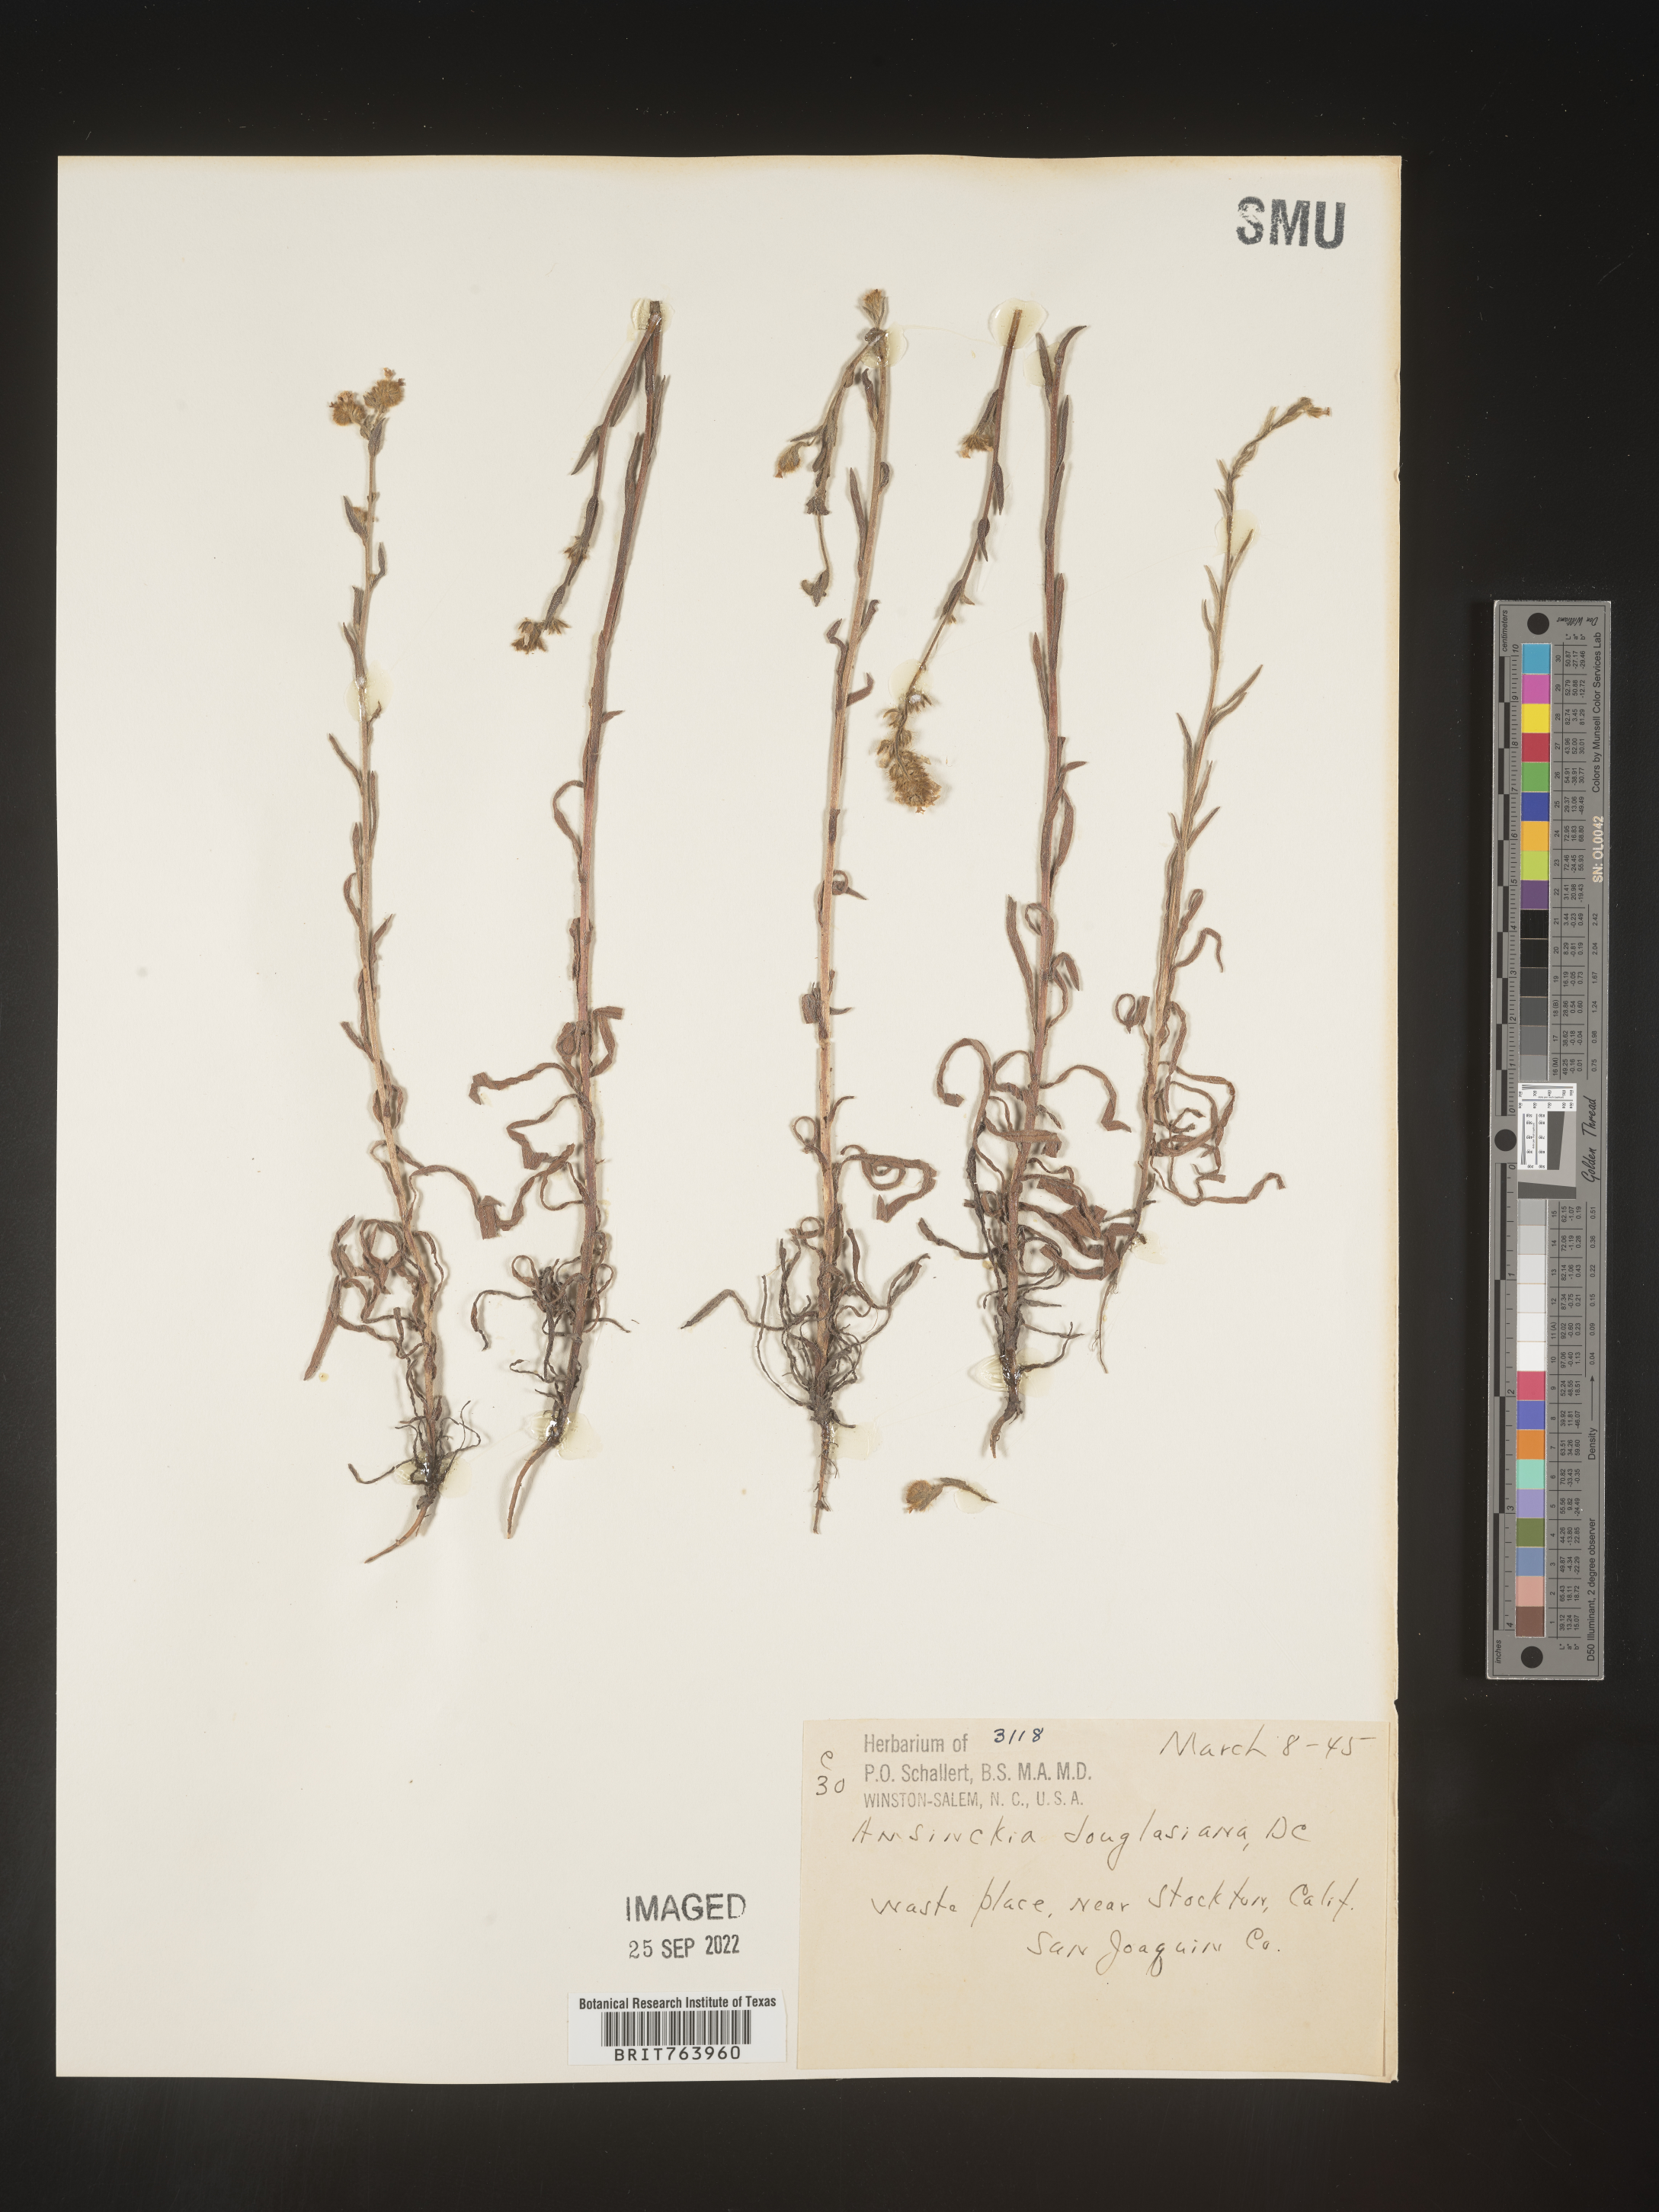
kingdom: Plantae
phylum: Tracheophyta
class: Magnoliopsida
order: Boraginales
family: Boraginaceae
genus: Amsinckia
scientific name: Amsinckia
